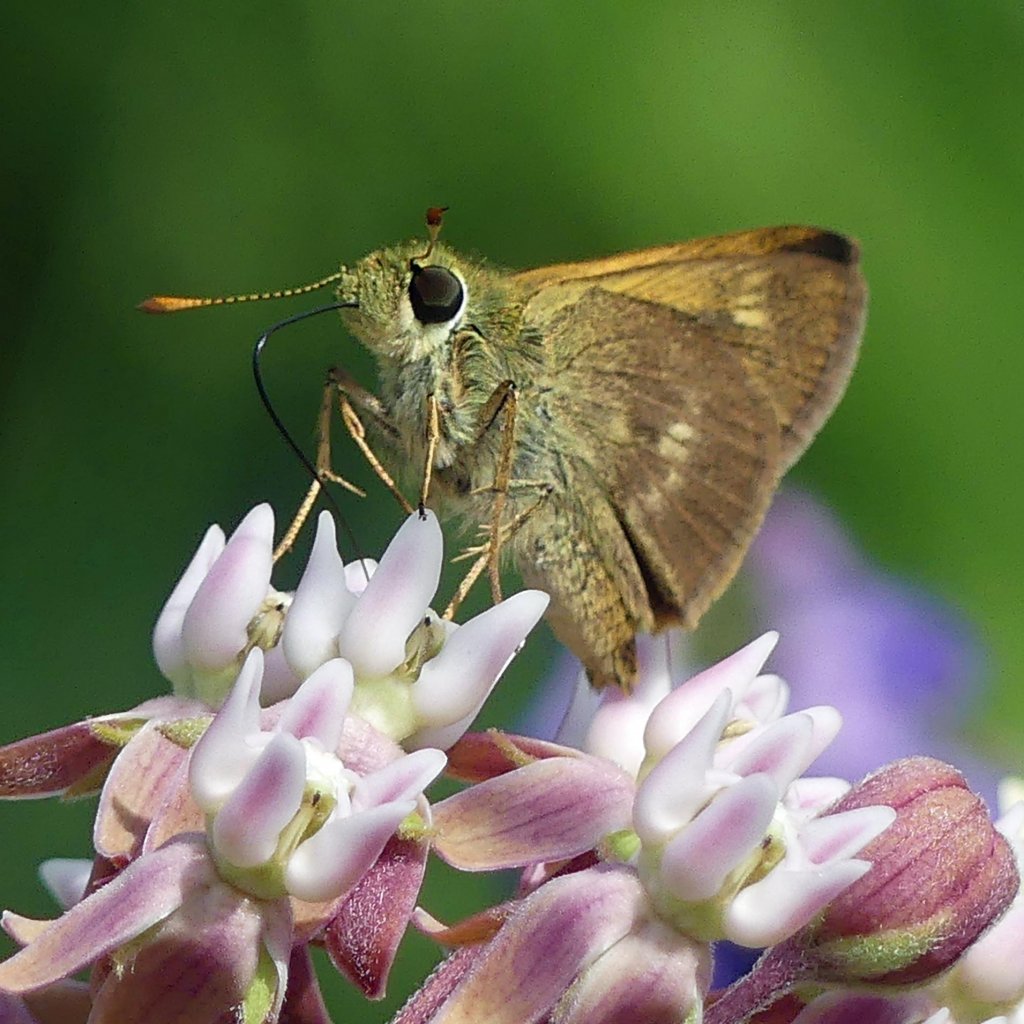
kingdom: Animalia
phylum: Arthropoda
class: Insecta
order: Lepidoptera
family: Hesperiidae
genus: Polites
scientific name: Polites egeremet
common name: Northern Broken-Dash
